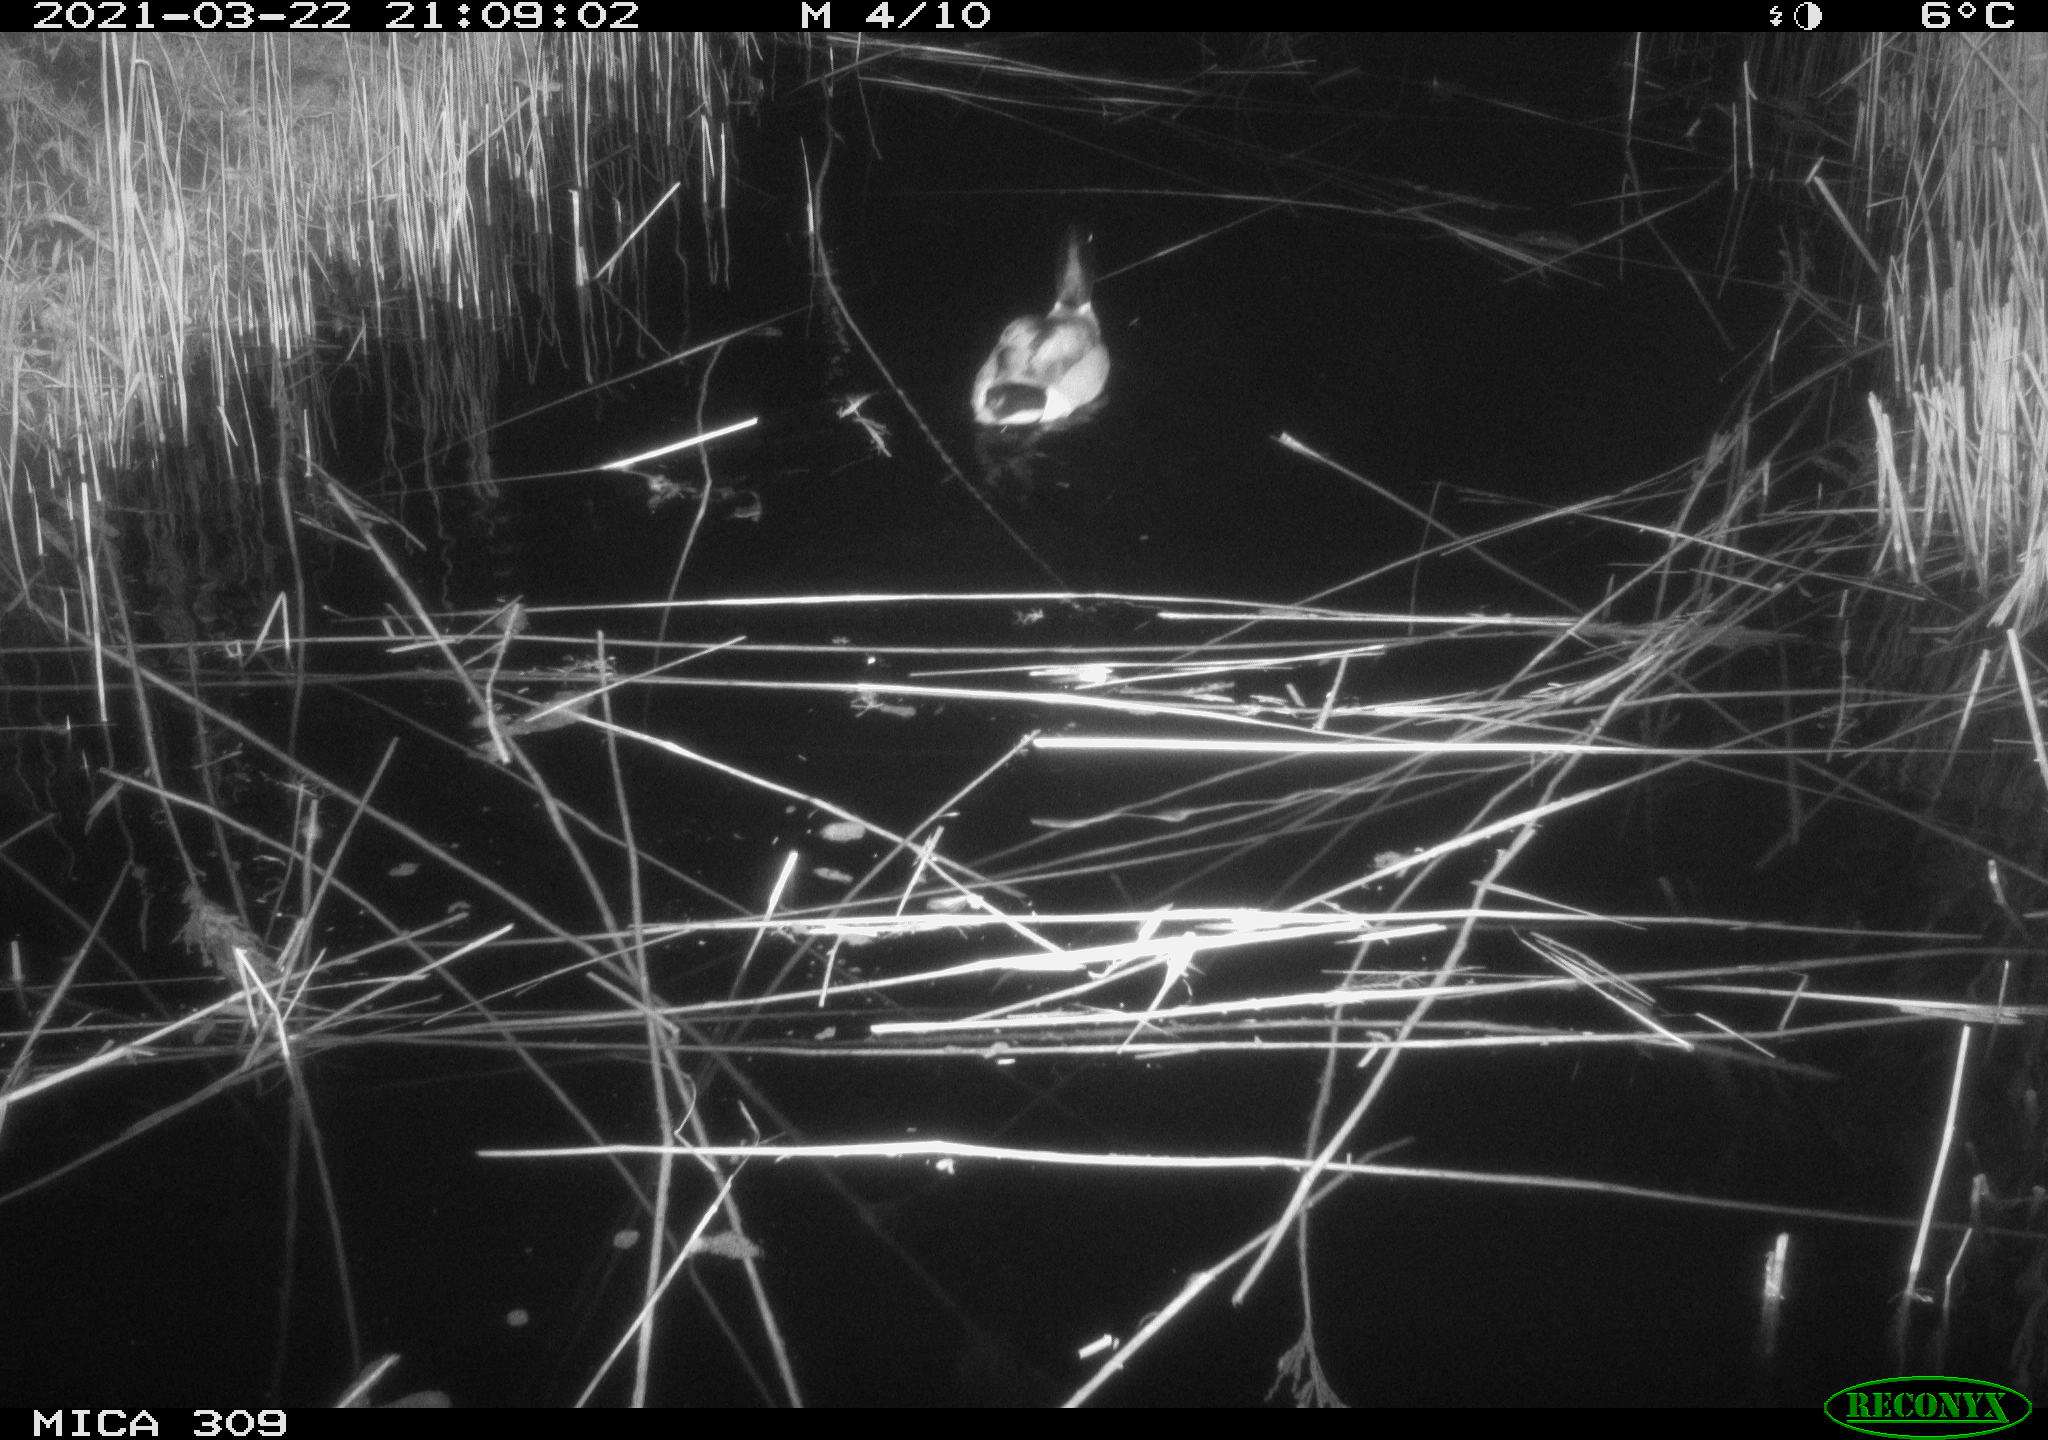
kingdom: Animalia
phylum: Chordata
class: Aves
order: Anseriformes
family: Anatidae
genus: Anas
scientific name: Anas platyrhynchos
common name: Mallard
